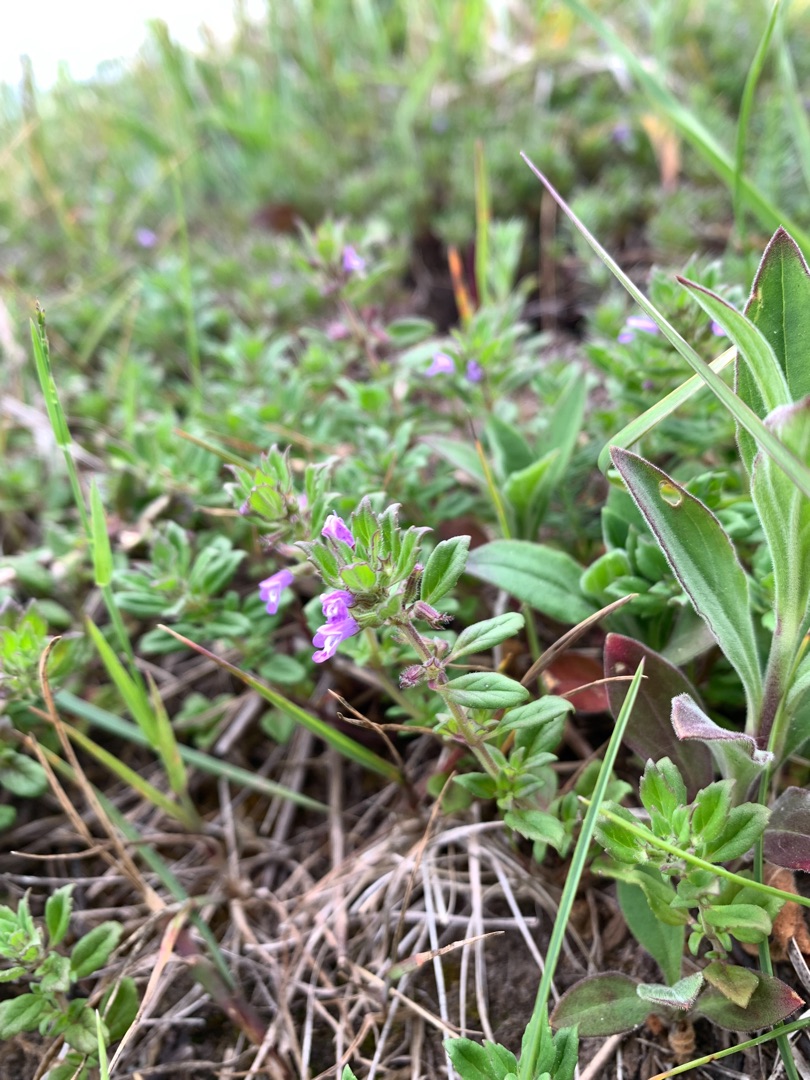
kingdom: Plantae
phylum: Tracheophyta
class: Magnoliopsida
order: Lamiales
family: Lamiaceae
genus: Clinopodium
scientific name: Clinopodium acinos
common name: Voldtimian
